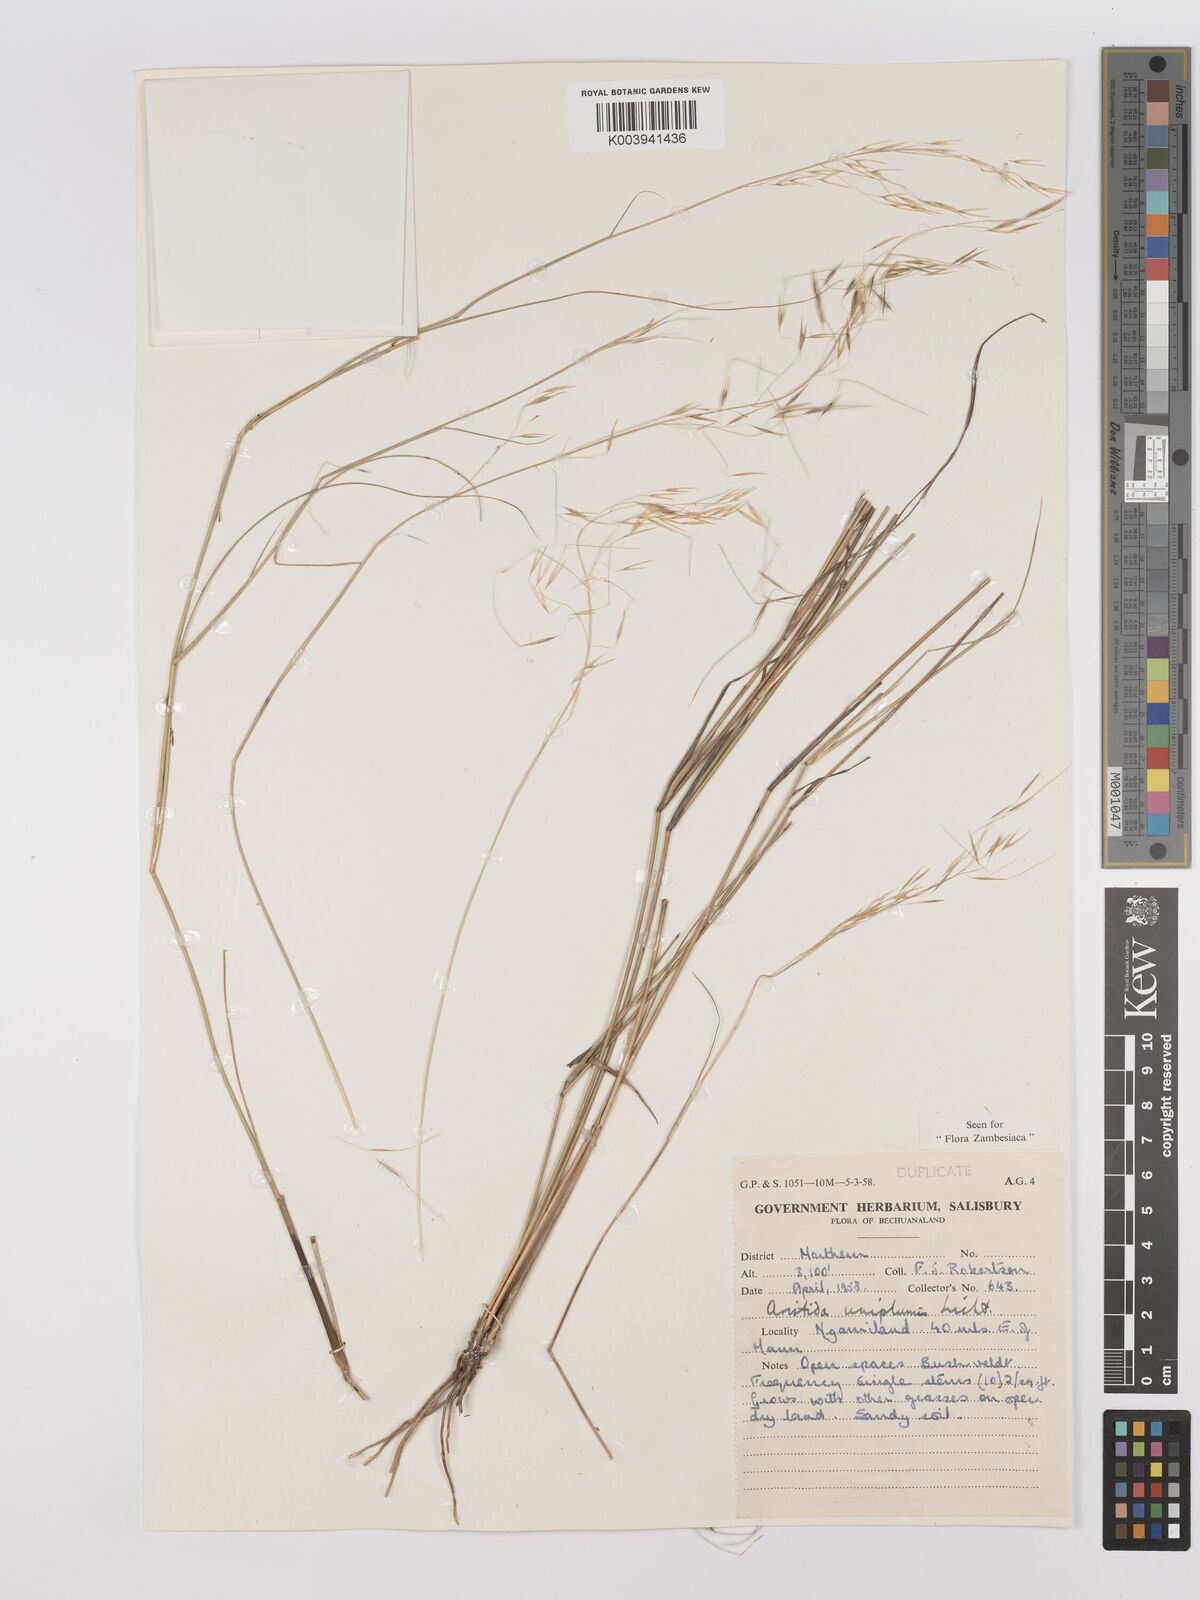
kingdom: Plantae
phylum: Tracheophyta
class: Liliopsida
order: Poales
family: Poaceae
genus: Stipagrostis
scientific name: Stipagrostis uniplumis
